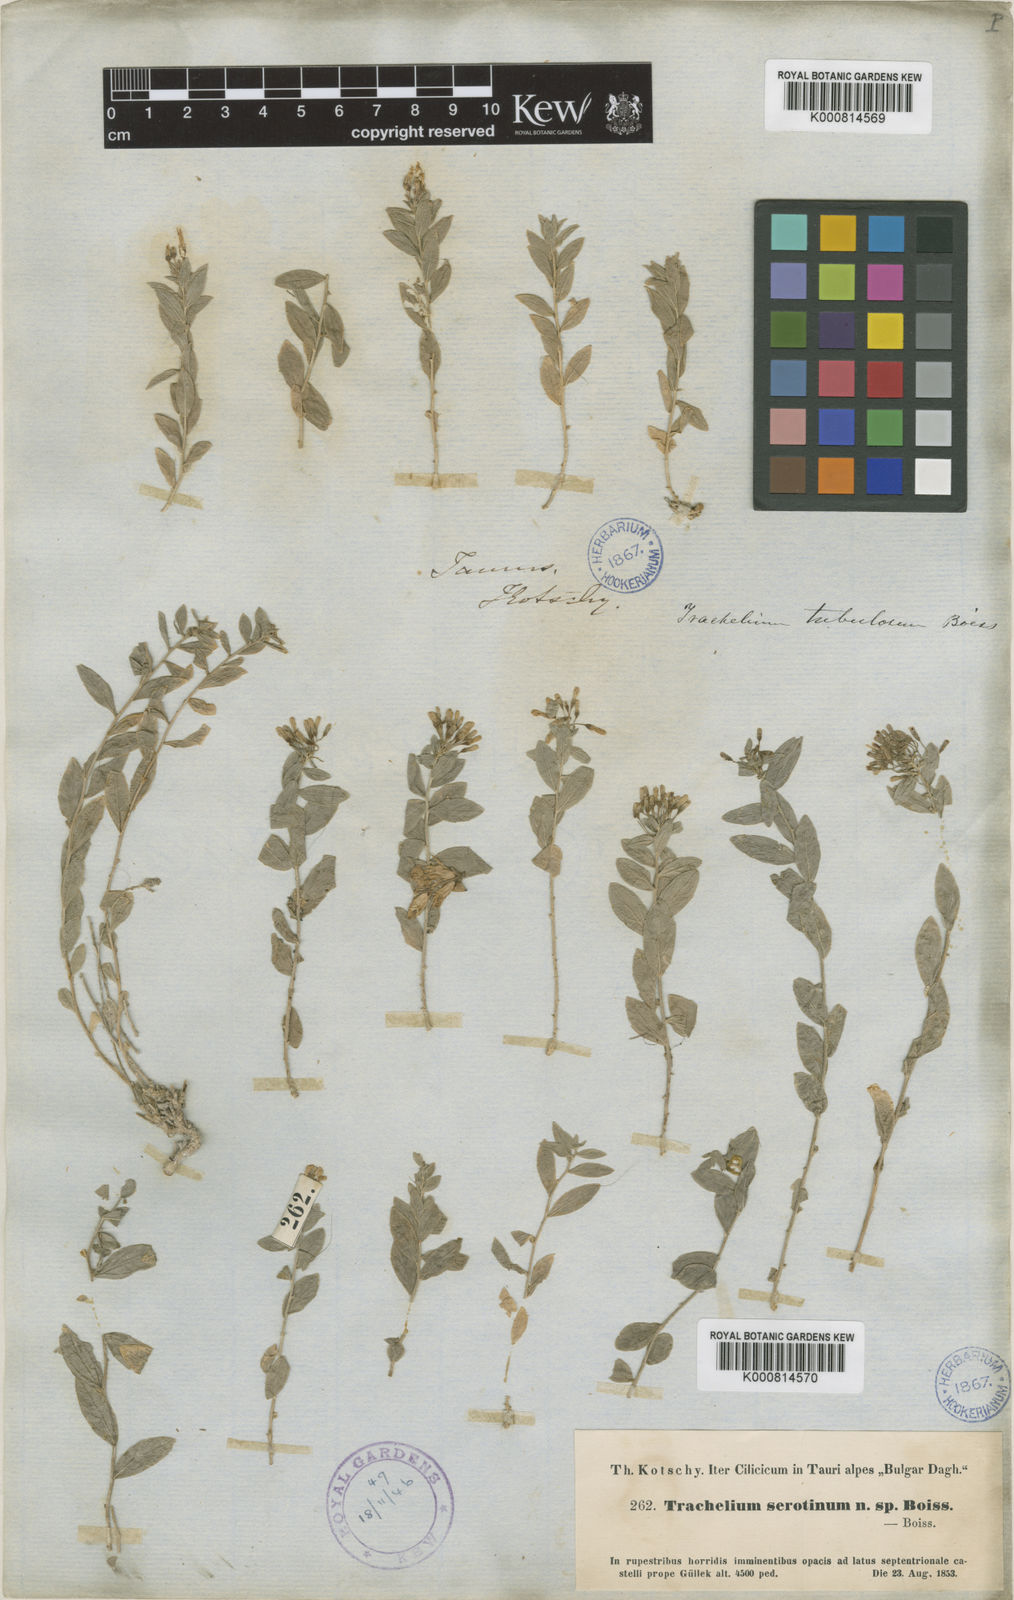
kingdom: Plantae
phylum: Tracheophyta
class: Magnoliopsida
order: Asterales
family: Campanulaceae
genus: Campanula
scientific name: Campanula
